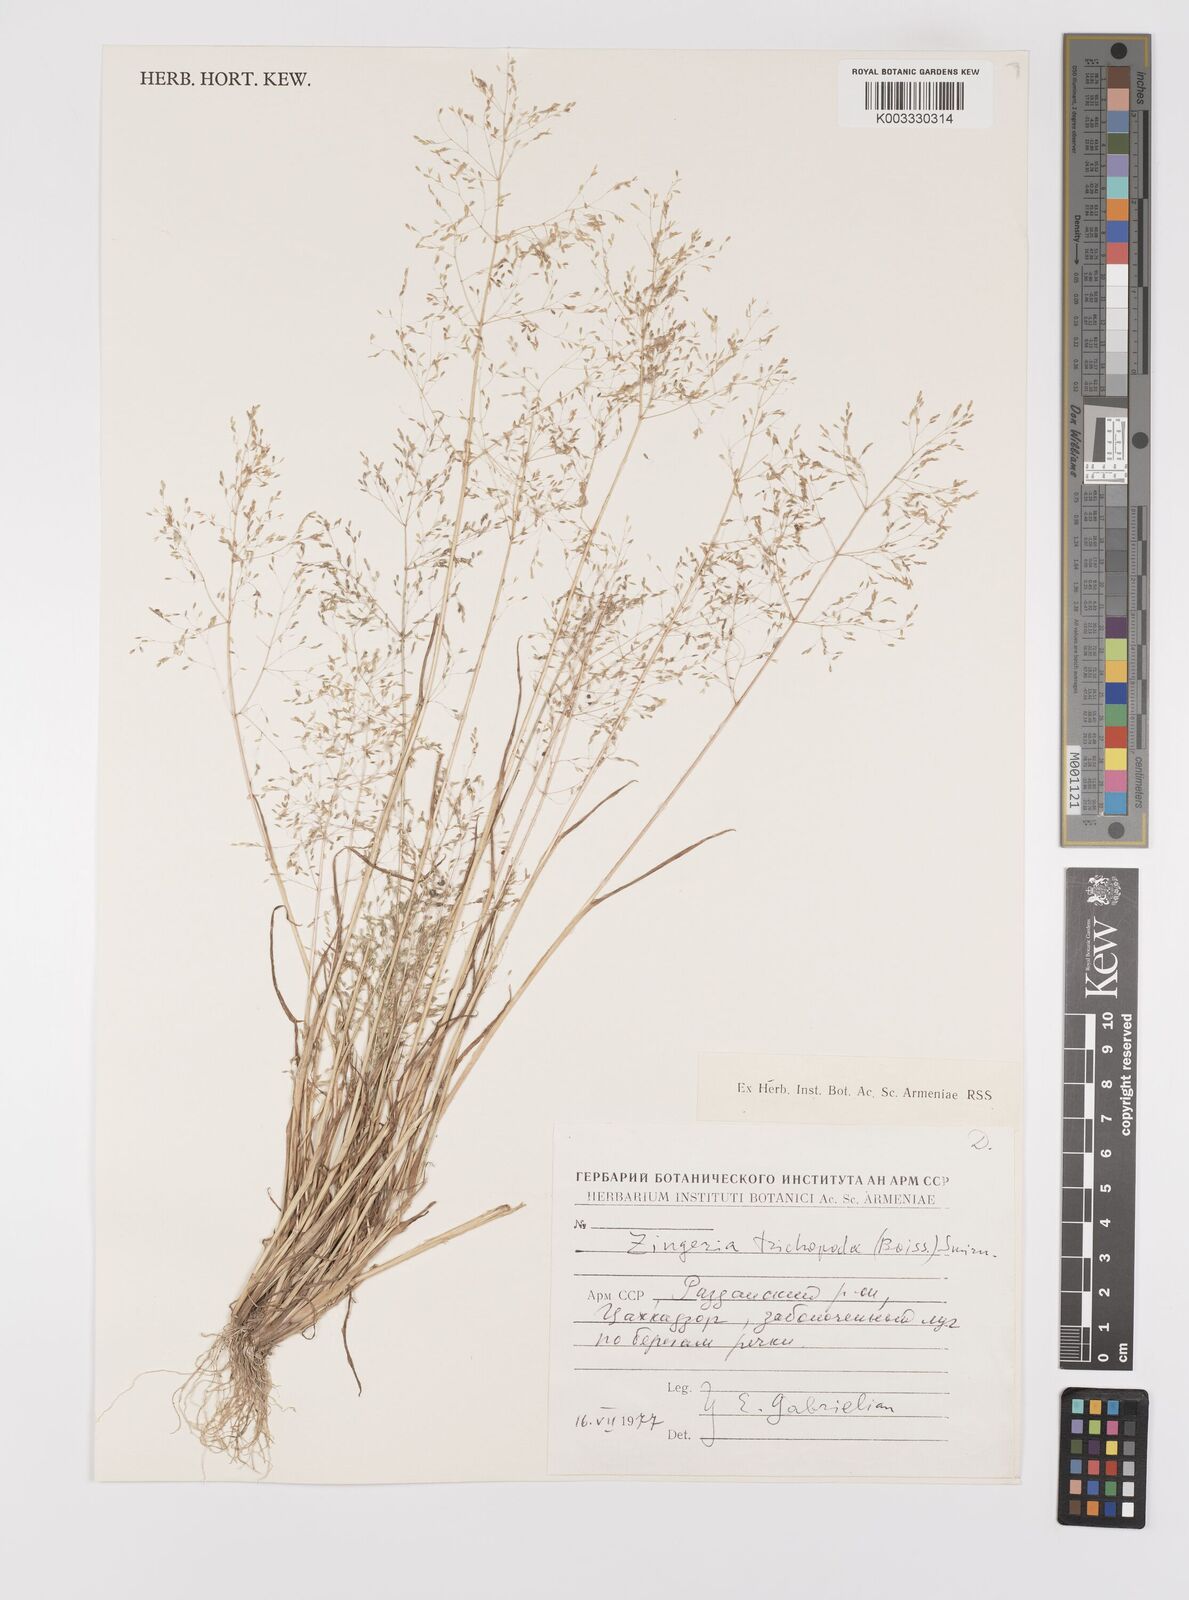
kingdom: Plantae
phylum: Tracheophyta
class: Liliopsida
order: Poales
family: Poaceae
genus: Colpodium
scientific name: Colpodium trichopodum
